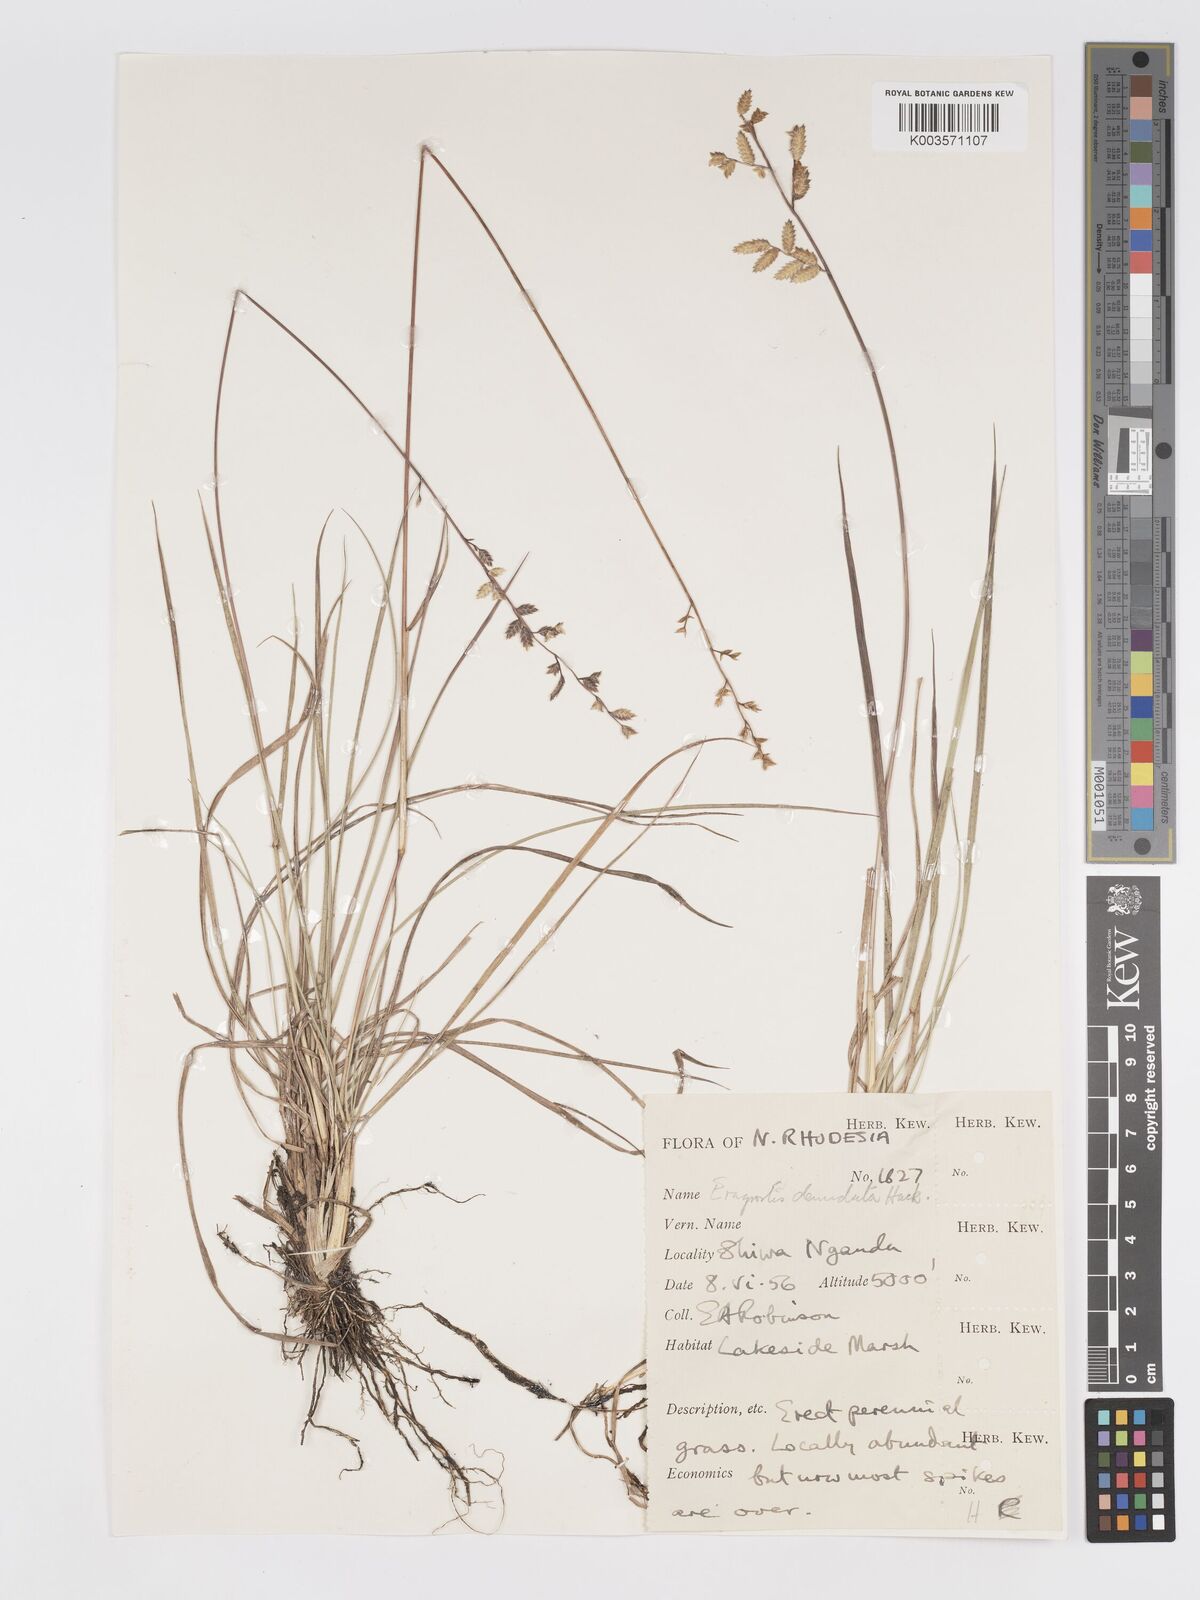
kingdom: Plantae
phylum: Tracheophyta
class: Liliopsida
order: Poales
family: Poaceae
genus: Eragrostis
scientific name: Eragrostis nindensis
